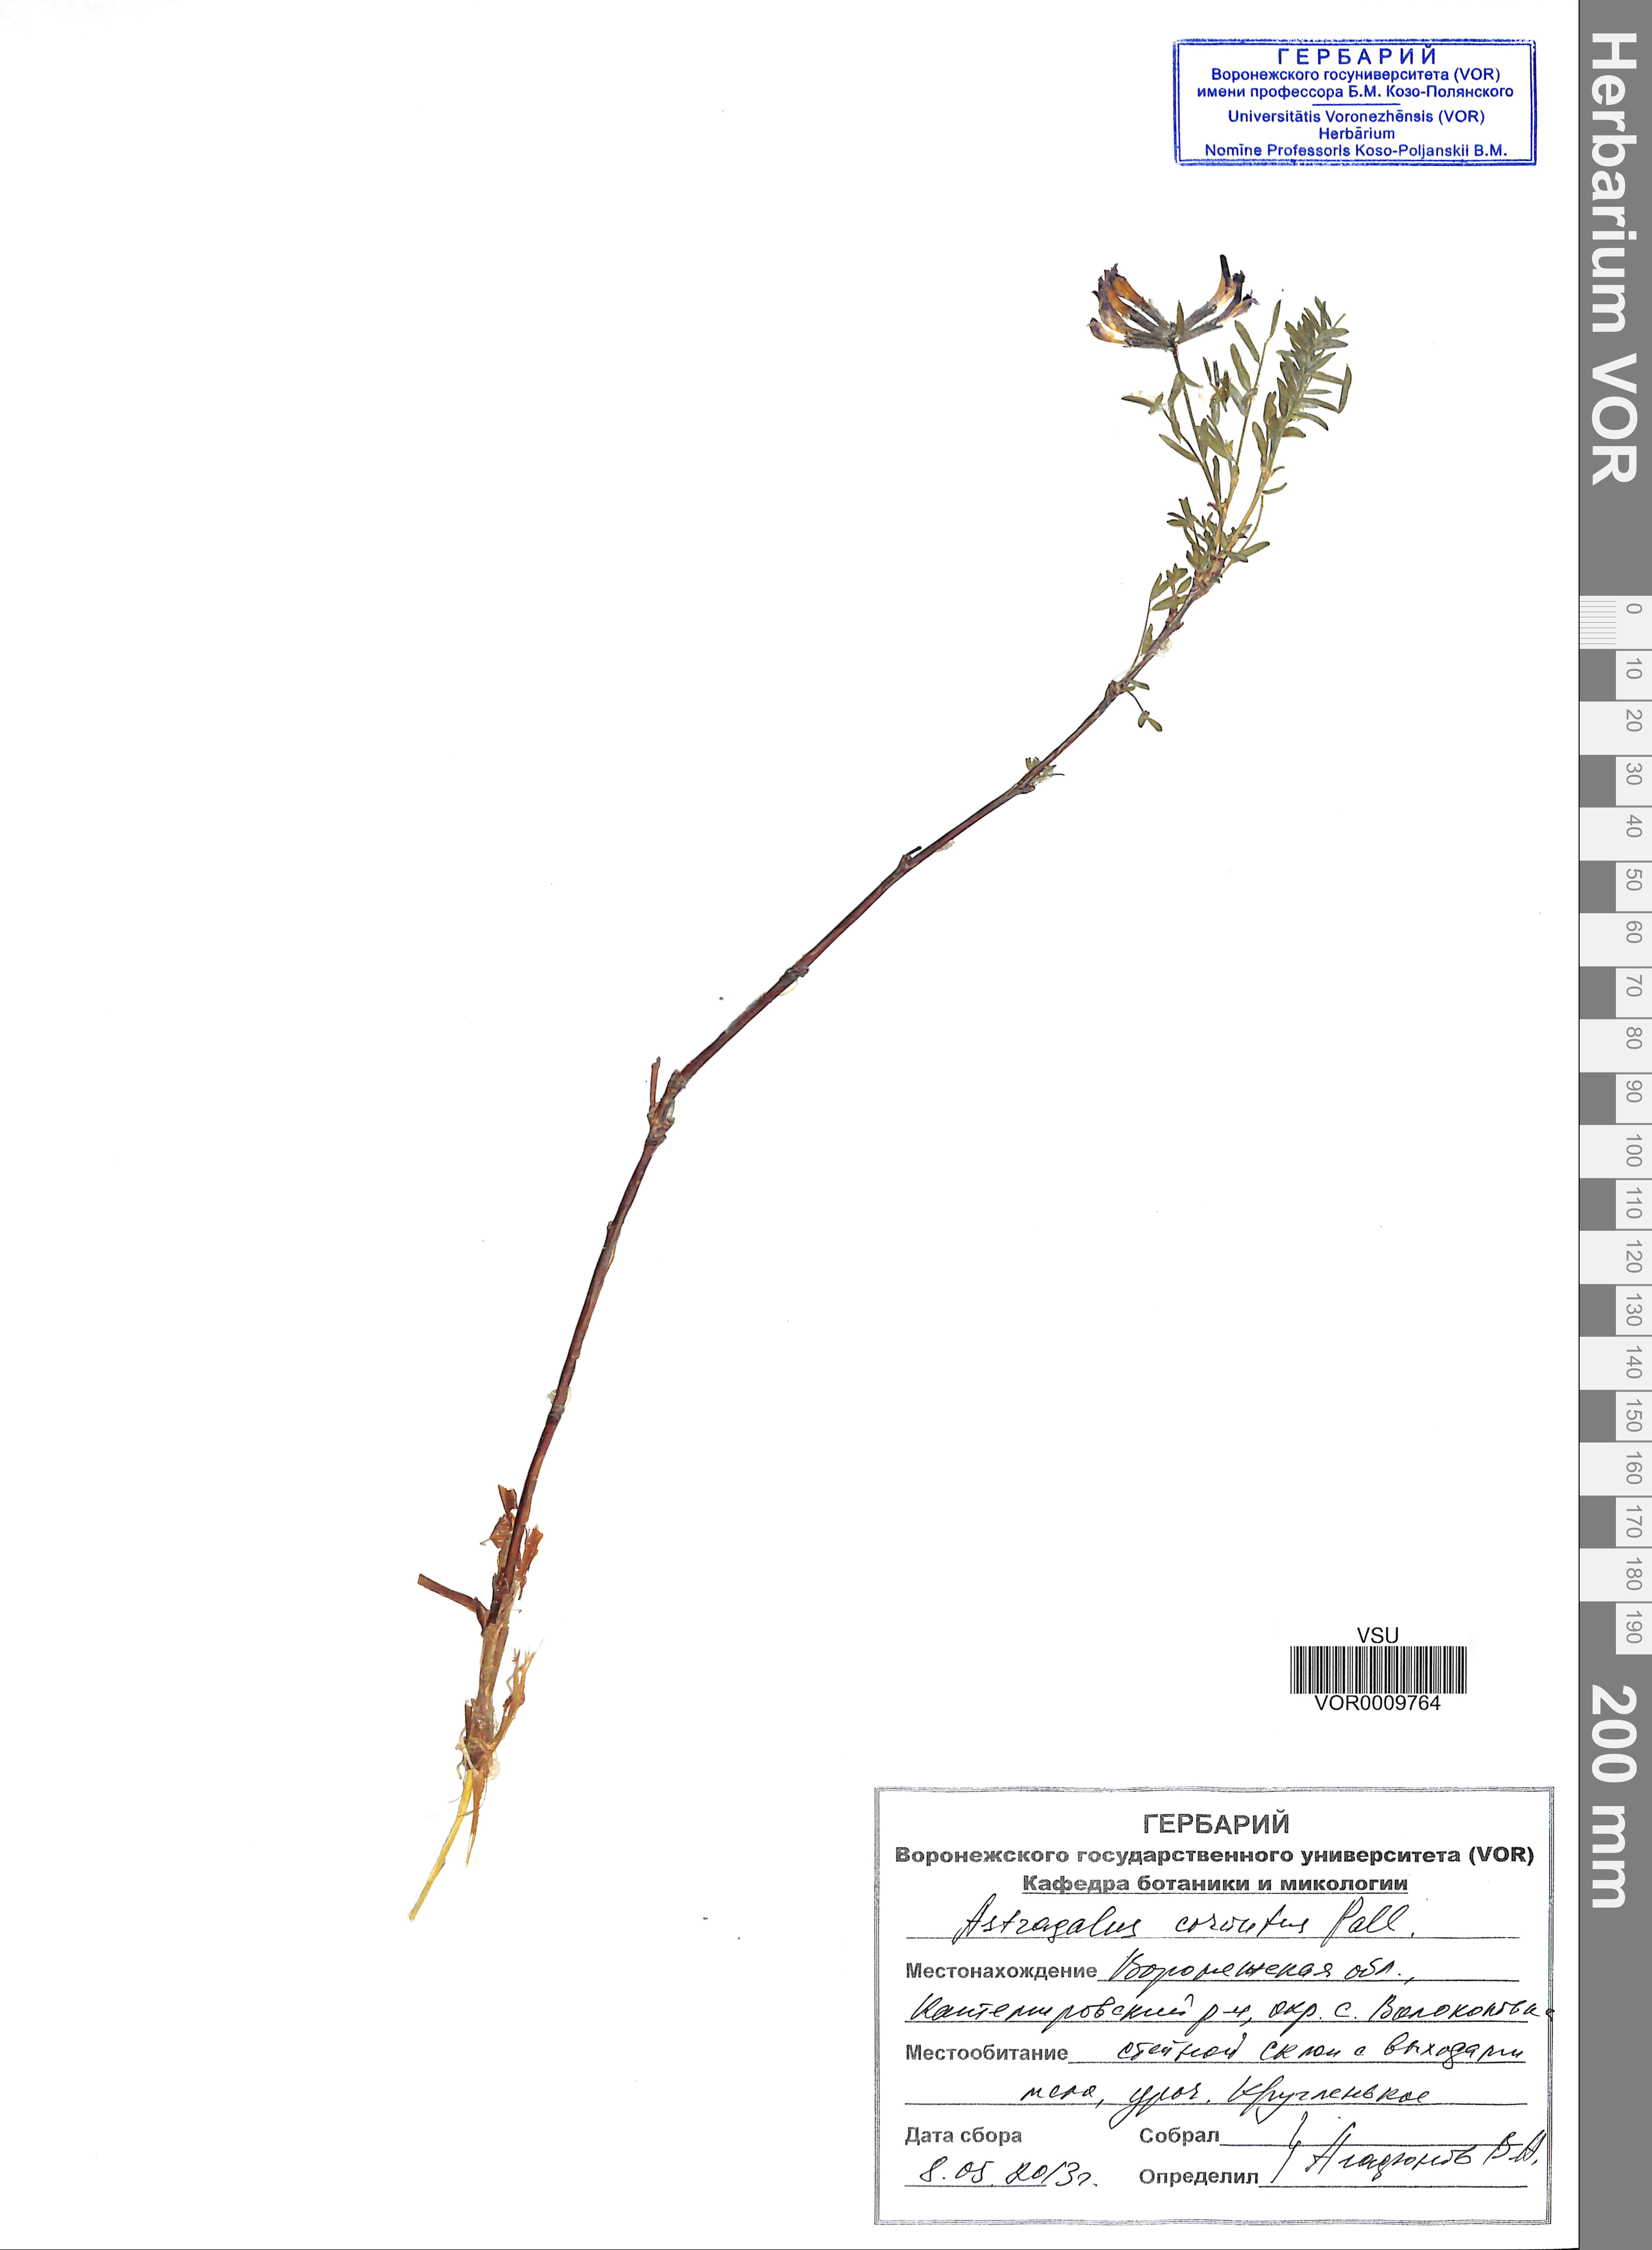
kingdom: Plantae
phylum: Tracheophyta
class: Magnoliopsida
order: Fabales
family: Fabaceae
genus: Astragalus
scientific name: Astragalus cornutus
